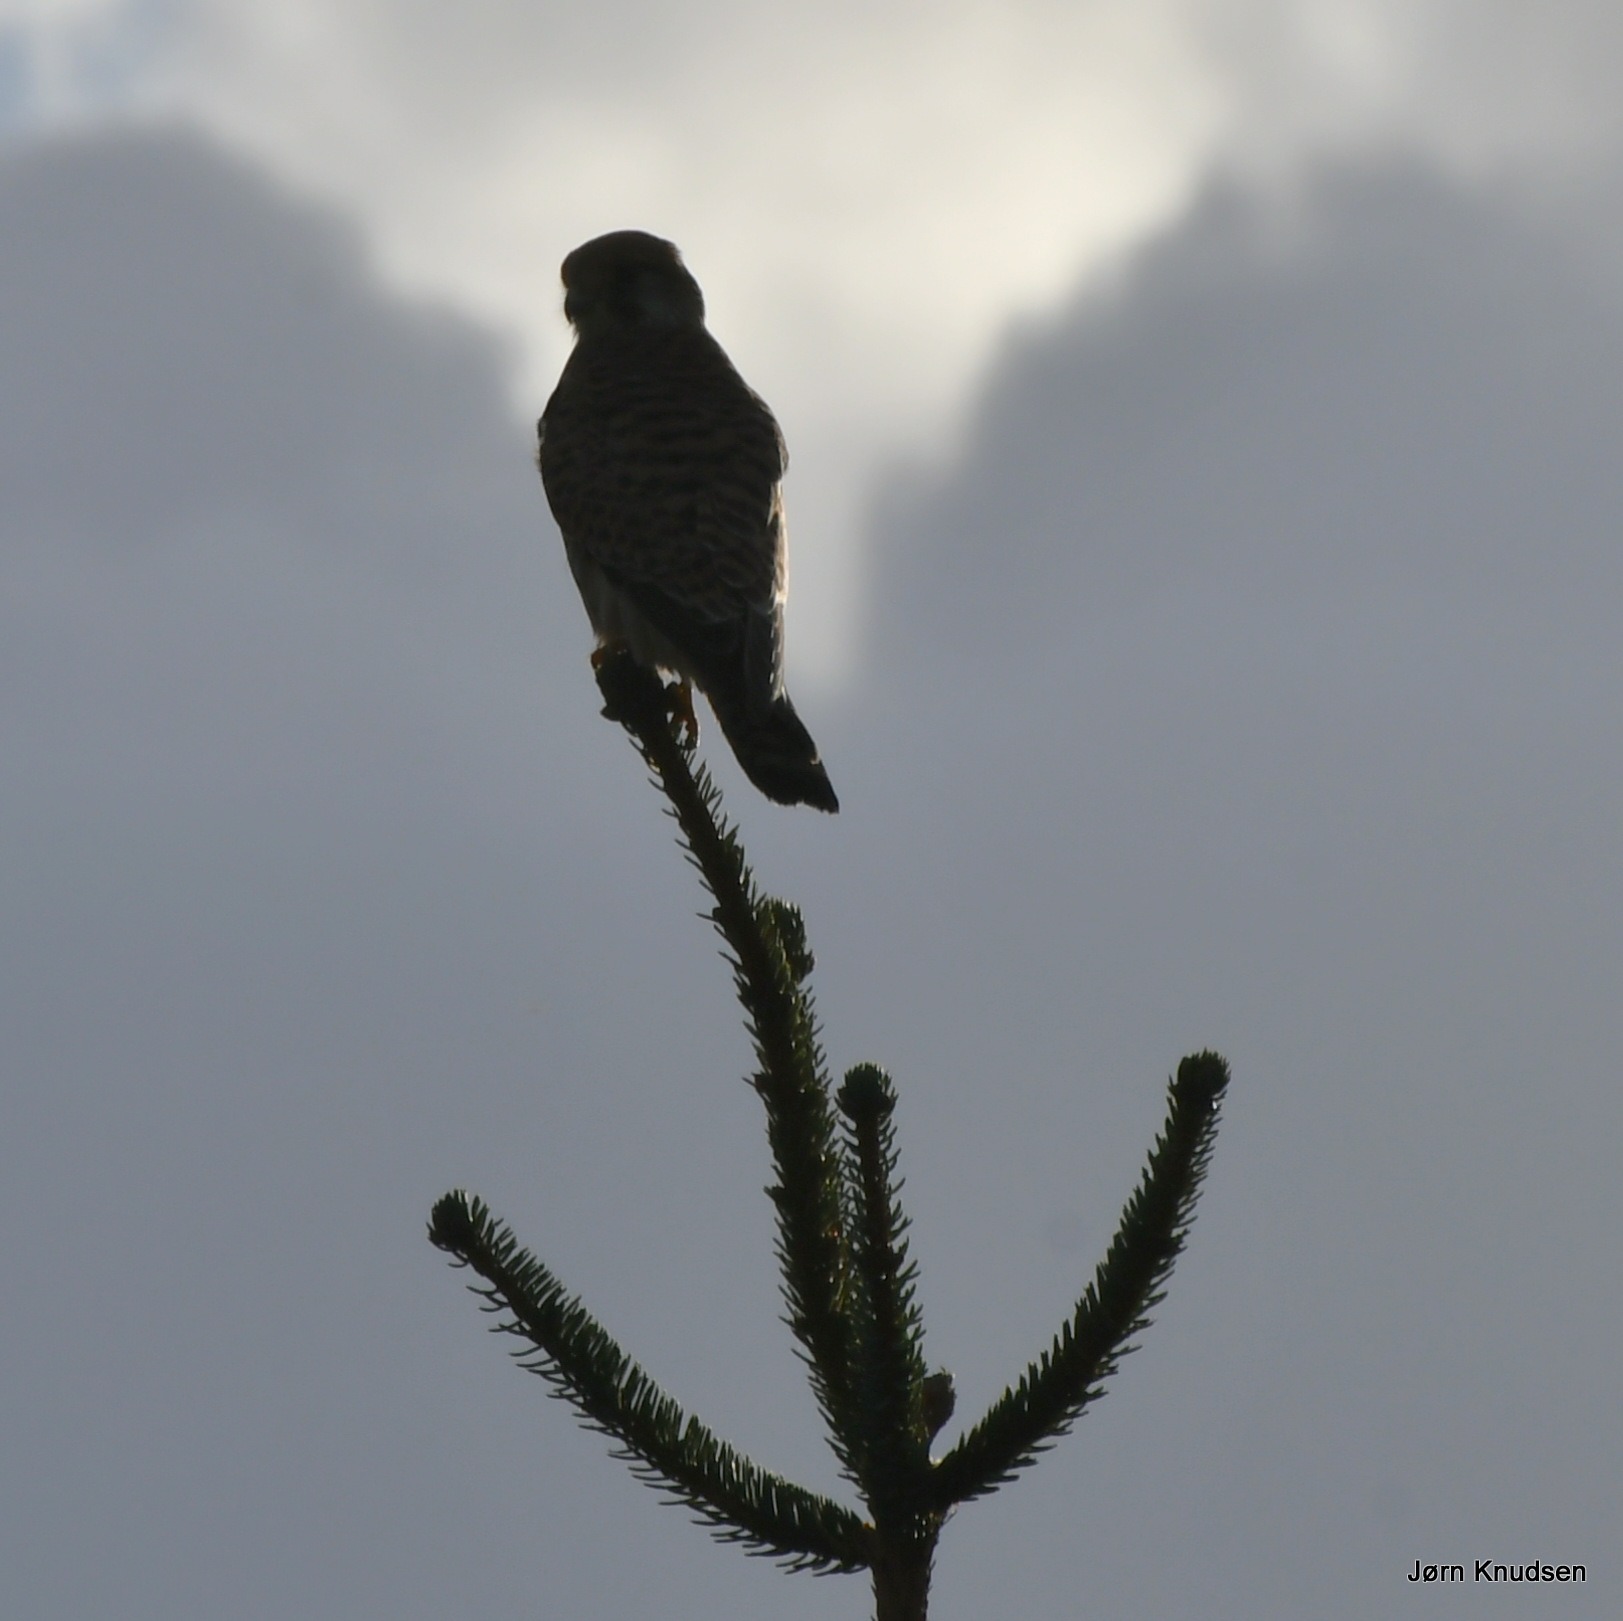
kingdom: Animalia
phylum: Chordata
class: Aves
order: Falconiformes
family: Falconidae
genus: Falco
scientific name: Falco tinnunculus
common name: Tårnfalk
